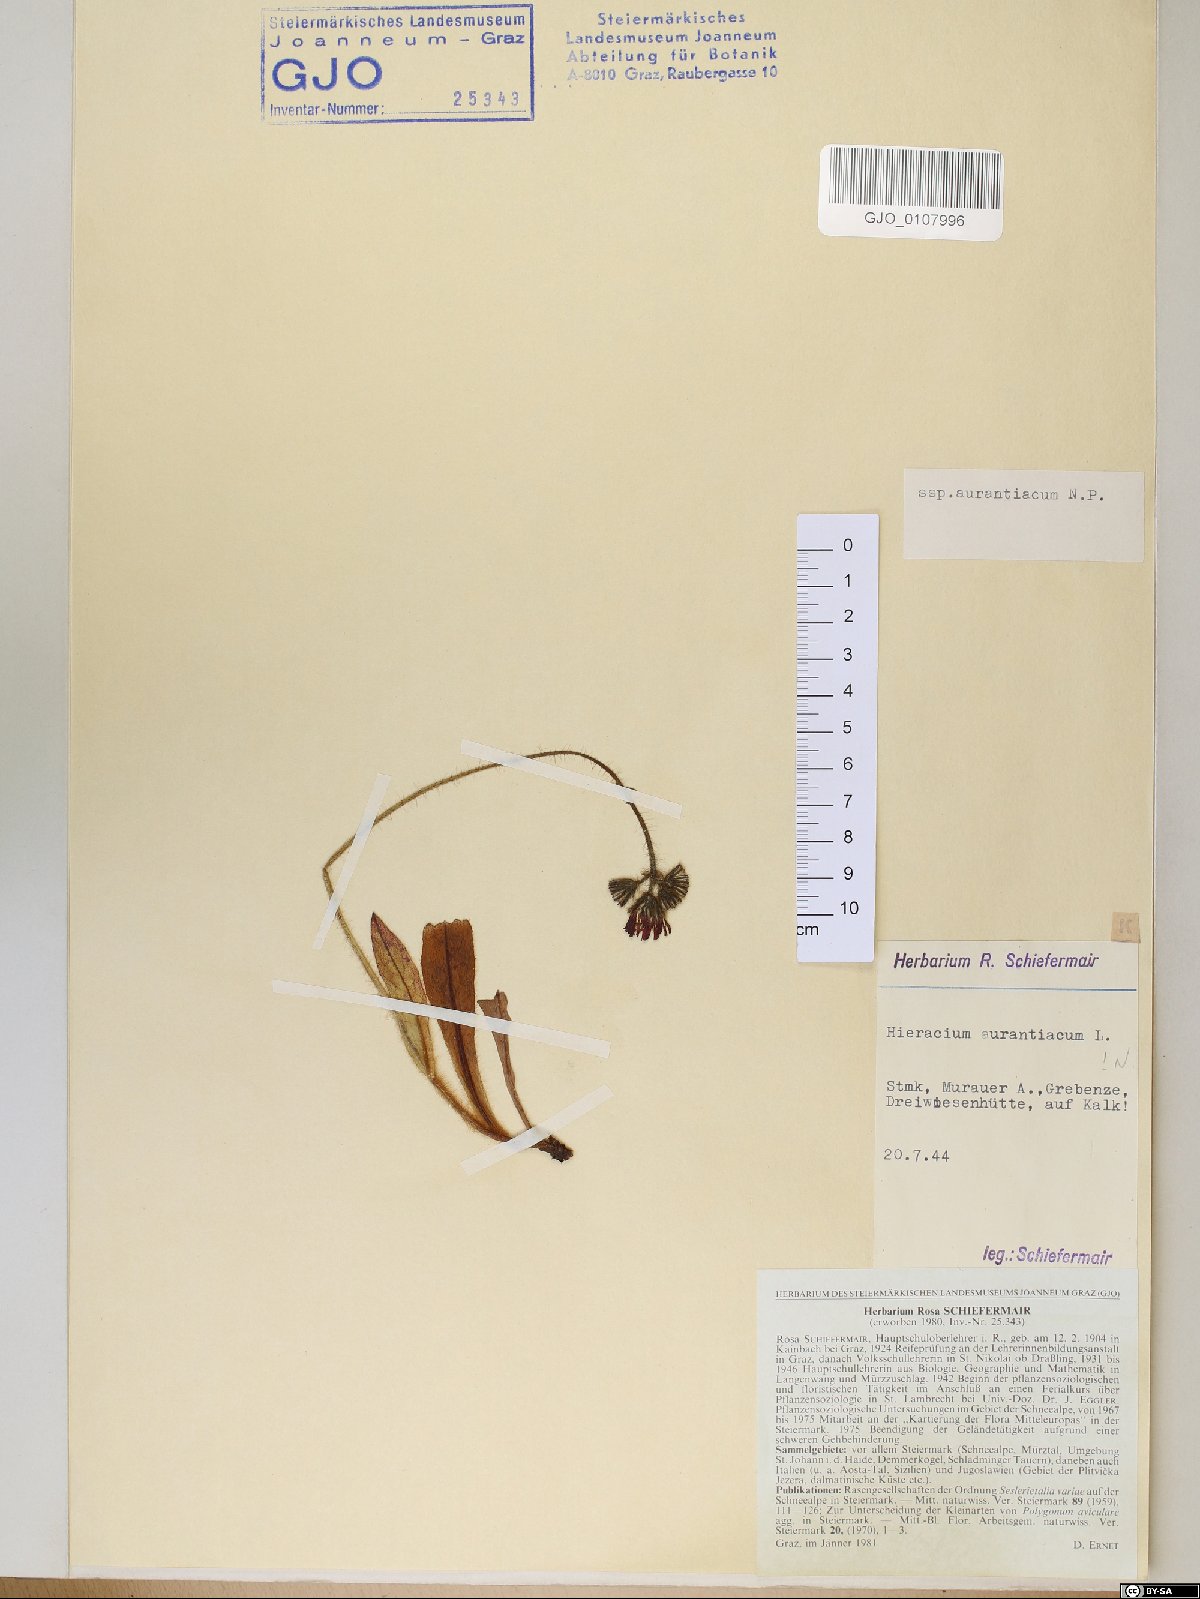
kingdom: Plantae
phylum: Tracheophyta
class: Magnoliopsida
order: Asterales
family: Asteraceae
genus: Pilosella
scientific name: Pilosella aurantiaca
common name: Fox-and-cubs
